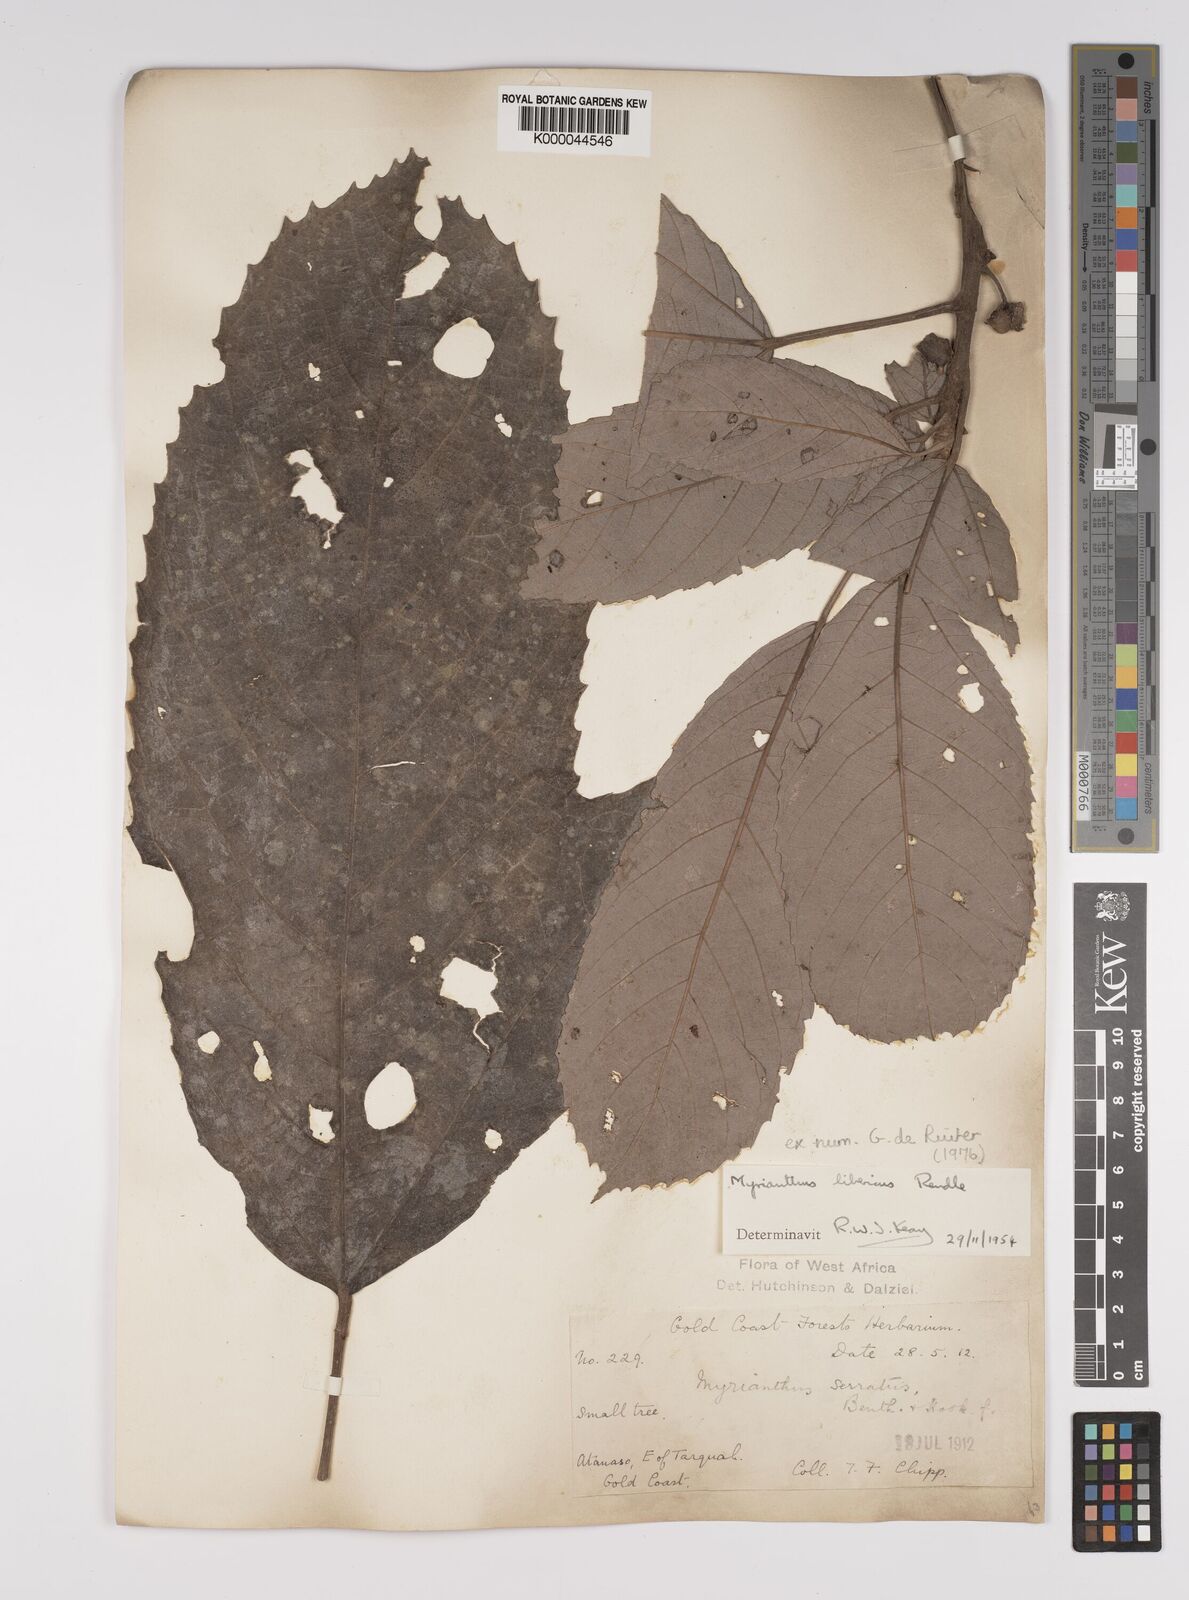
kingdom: Plantae
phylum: Tracheophyta
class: Magnoliopsida
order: Rosales
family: Urticaceae
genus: Myrianthus
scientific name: Myrianthus libericus
